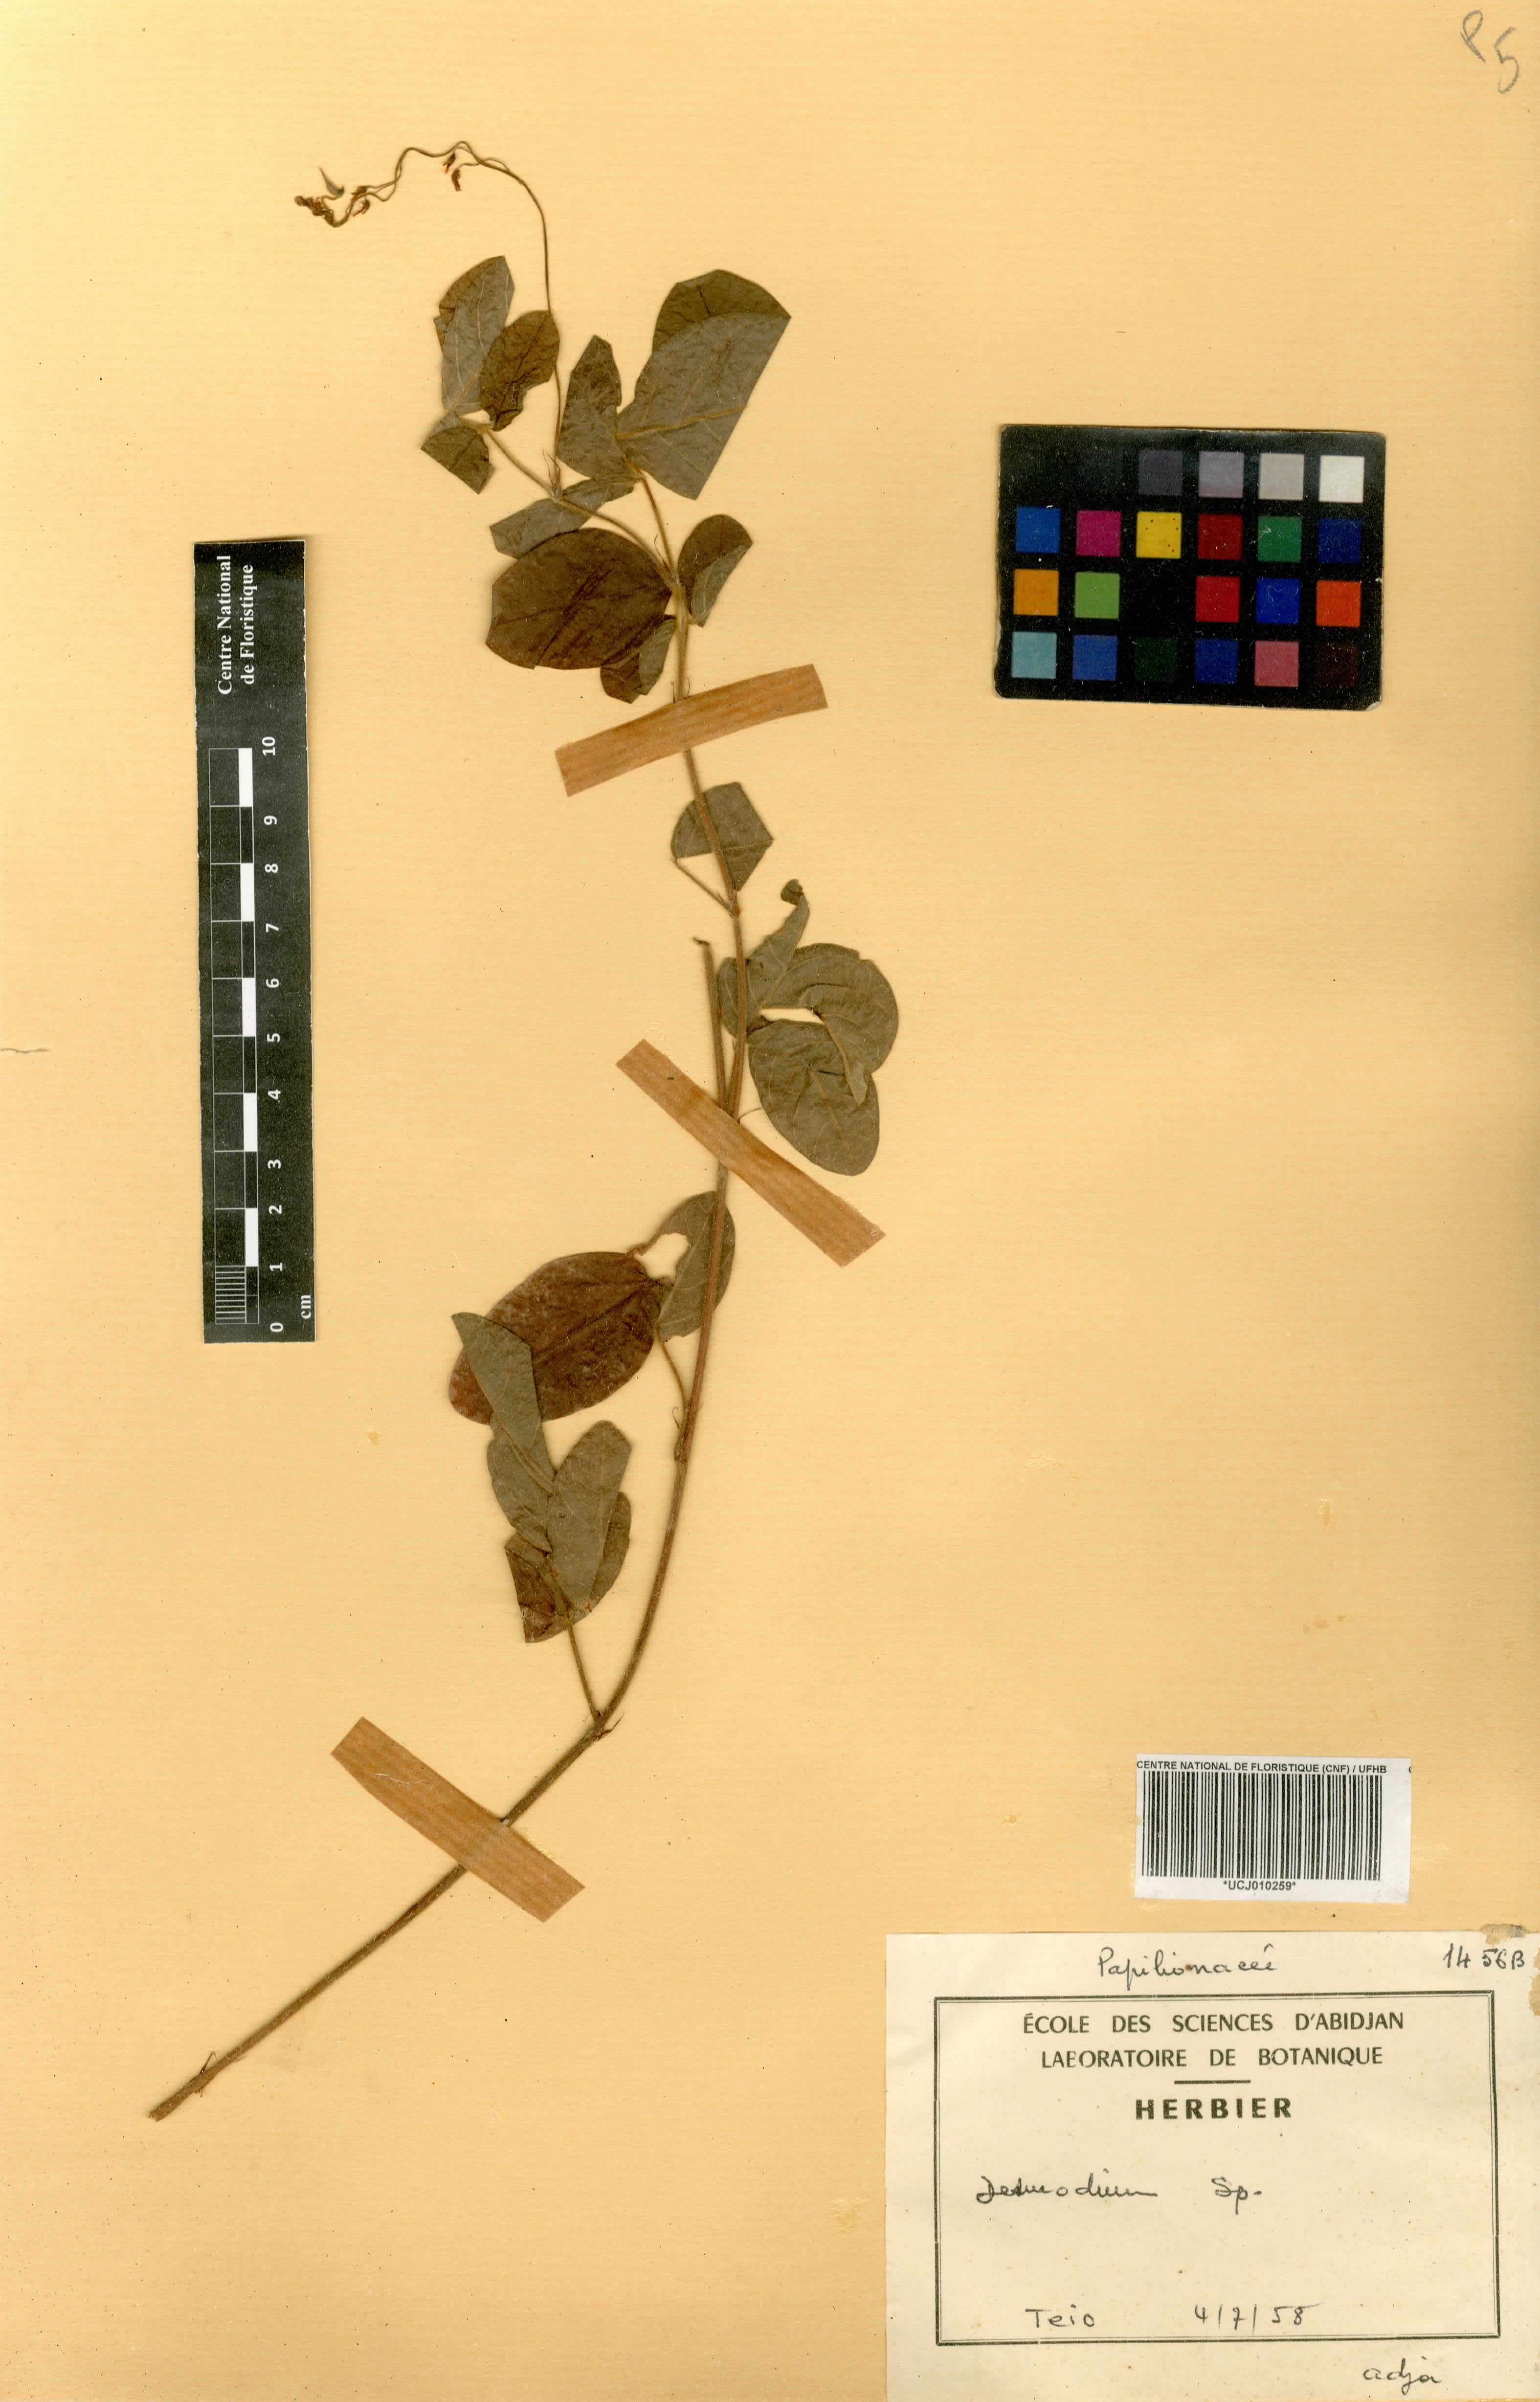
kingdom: Plantae
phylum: Tracheophyta
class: Magnoliopsida
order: Fabales
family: Fabaceae
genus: Desmodium
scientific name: Desmodium
